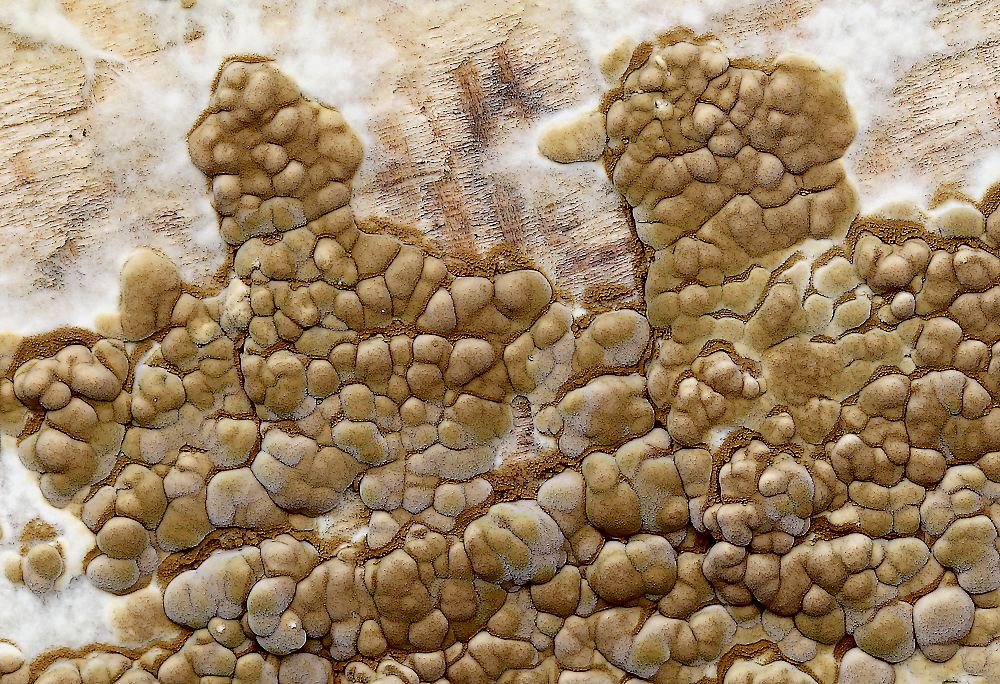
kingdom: Fungi
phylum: Basidiomycota
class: Agaricomycetes
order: Boletales
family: Coniophoraceae
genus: Coniophora
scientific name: Coniophora puteana
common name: gul tømmersvamp
